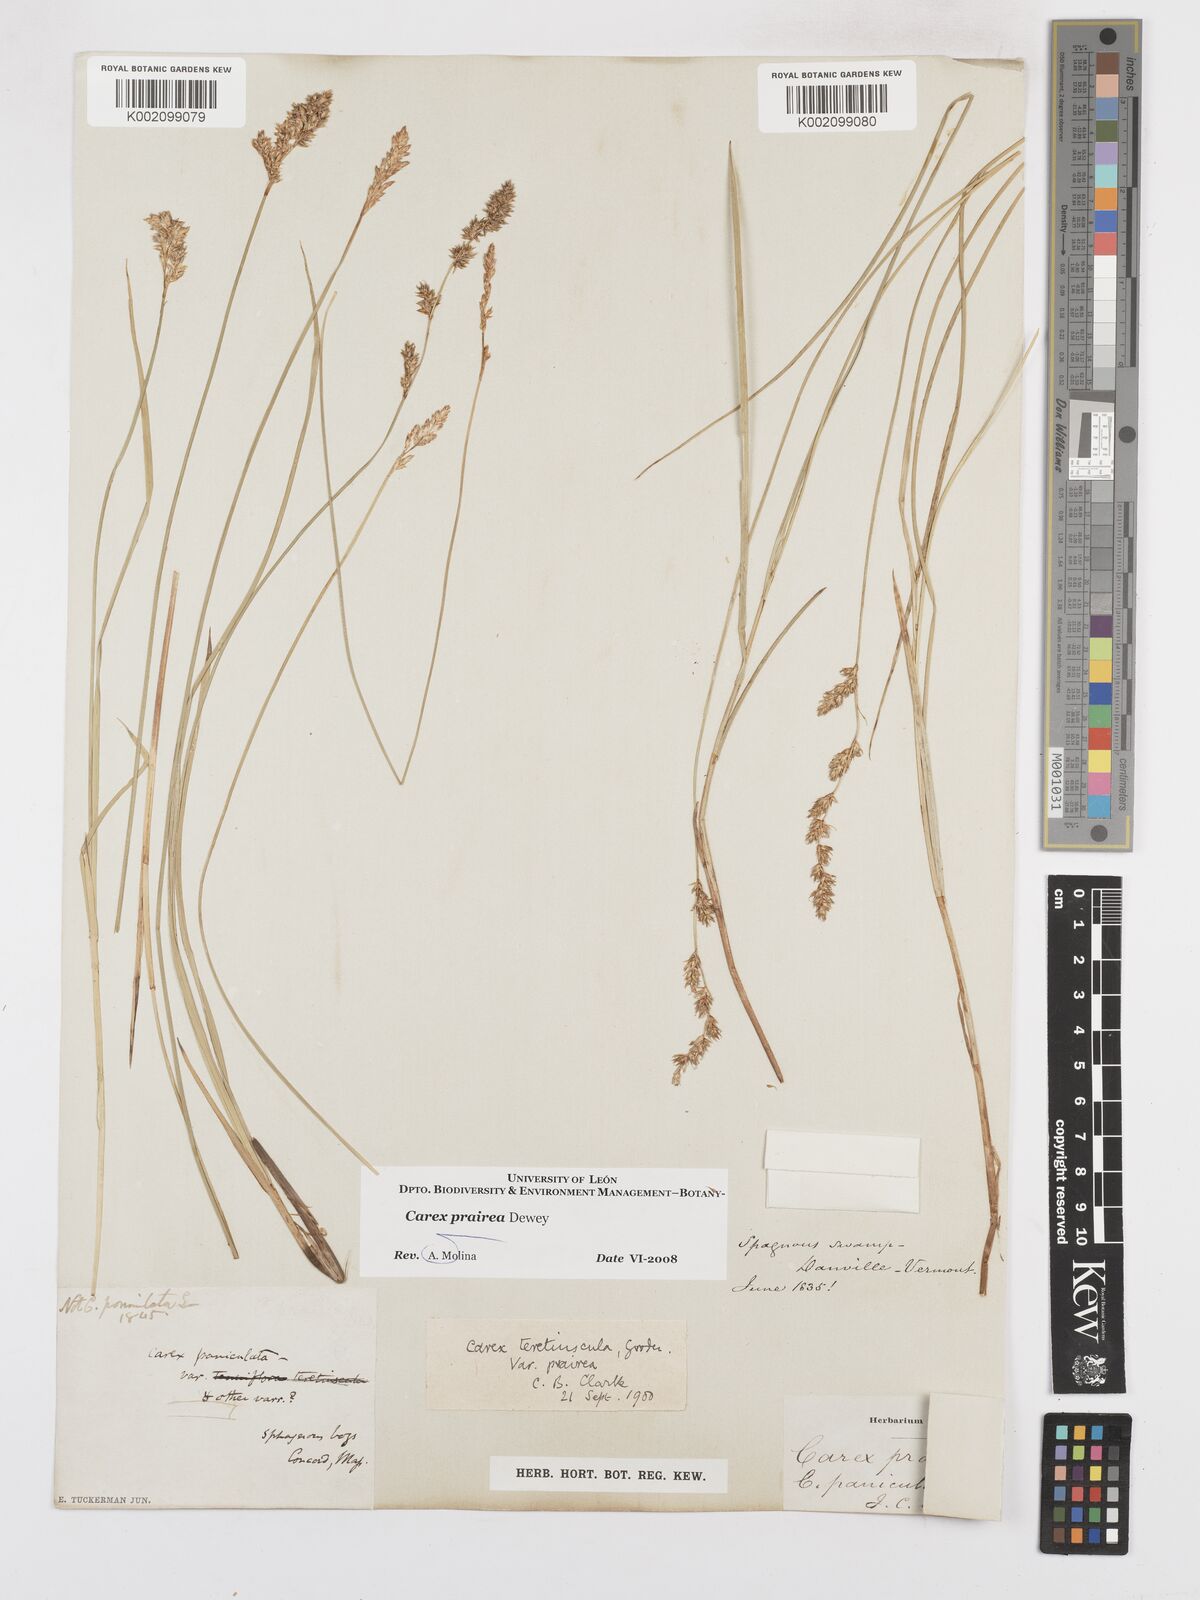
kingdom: Plantae
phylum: Tracheophyta
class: Liliopsida
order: Poales
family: Cyperaceae
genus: Carex
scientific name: Carex prairea
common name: Prairie sedge
